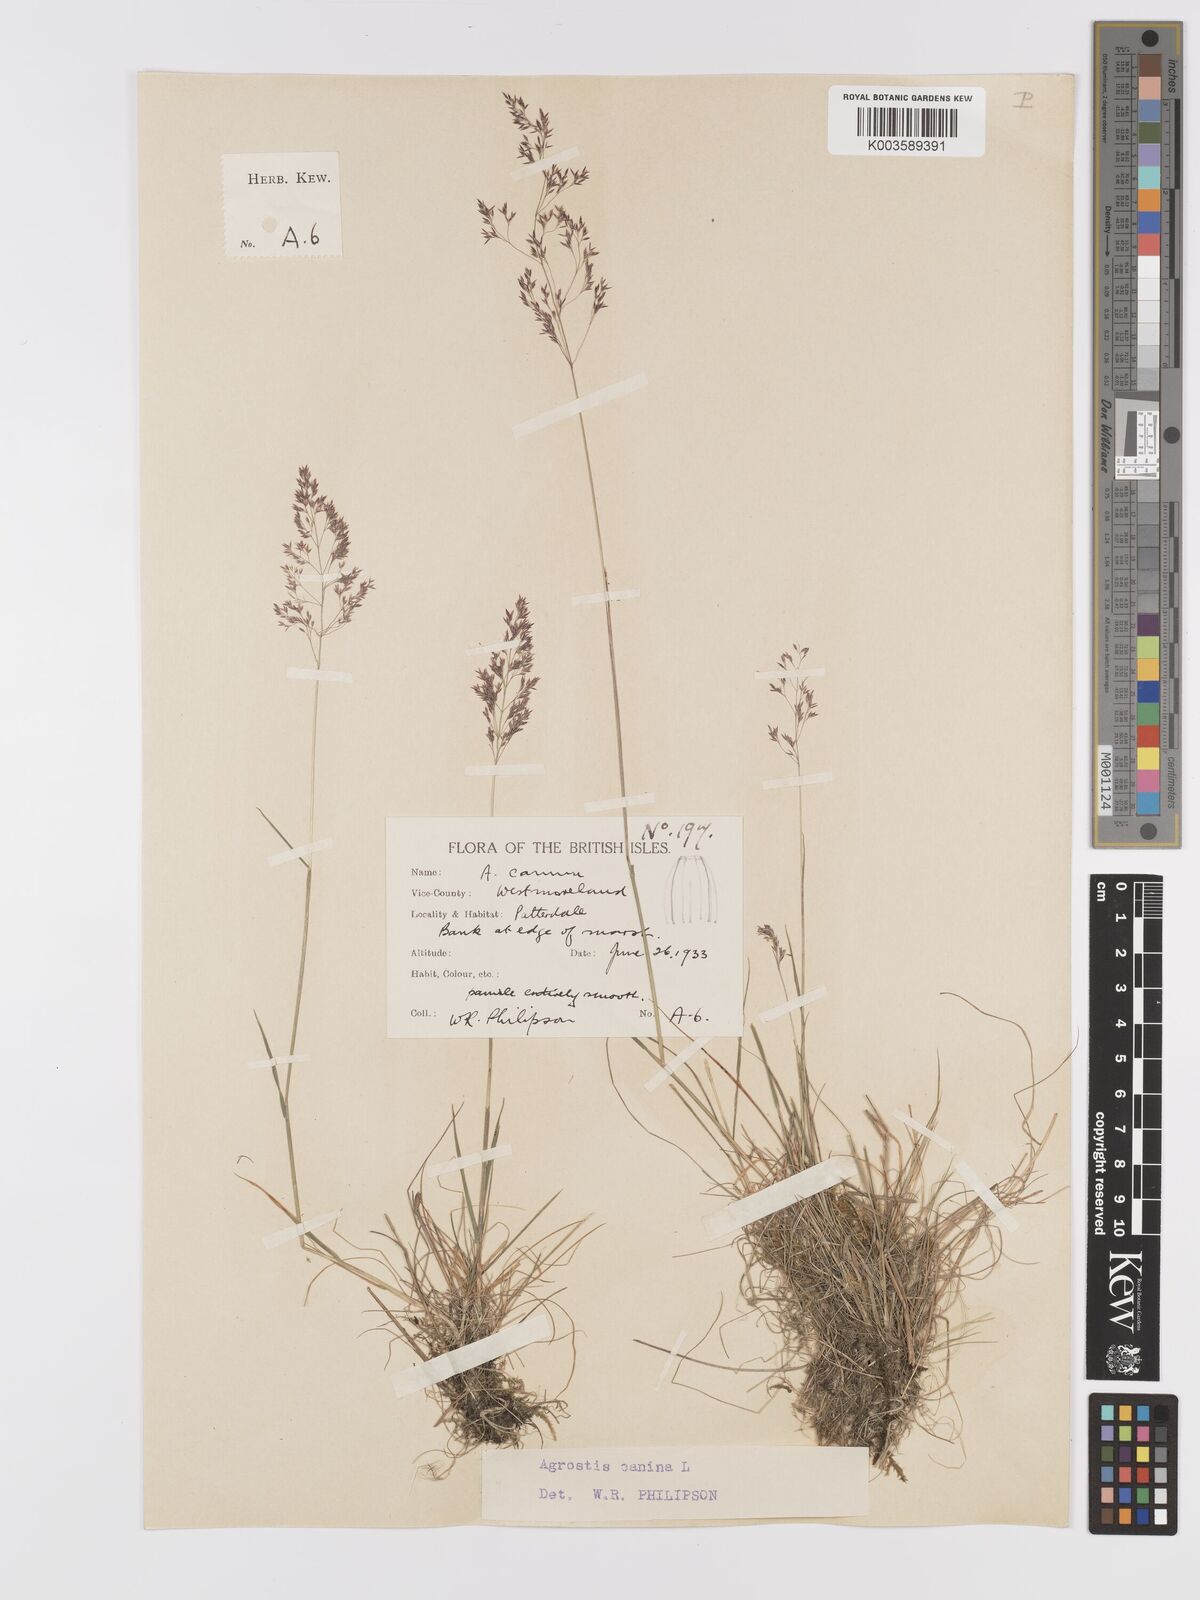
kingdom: Plantae
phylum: Tracheophyta
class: Liliopsida
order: Poales
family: Poaceae
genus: Agrostis
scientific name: Agrostis canina
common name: Velvet bent
